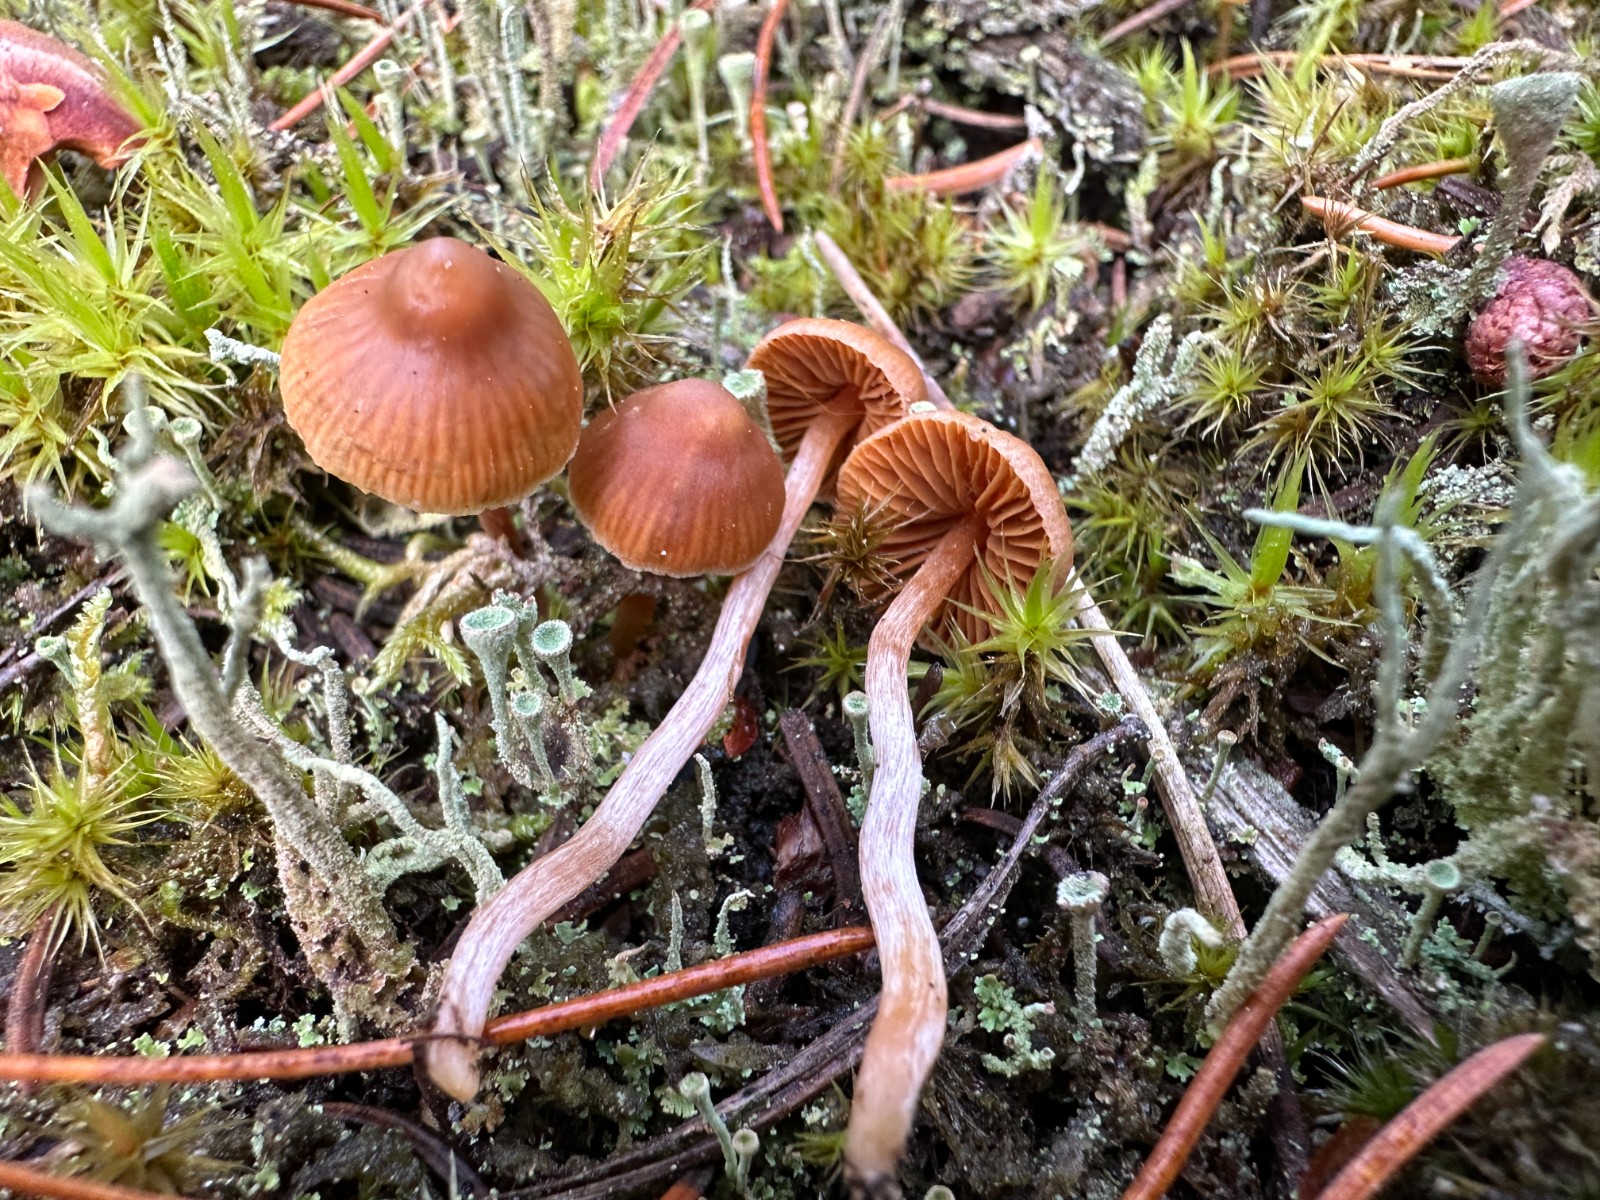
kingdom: Fungi
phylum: Basidiomycota
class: Agaricomycetes
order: Agaricales
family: Cortinariaceae
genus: Cortinarius
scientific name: Cortinarius
